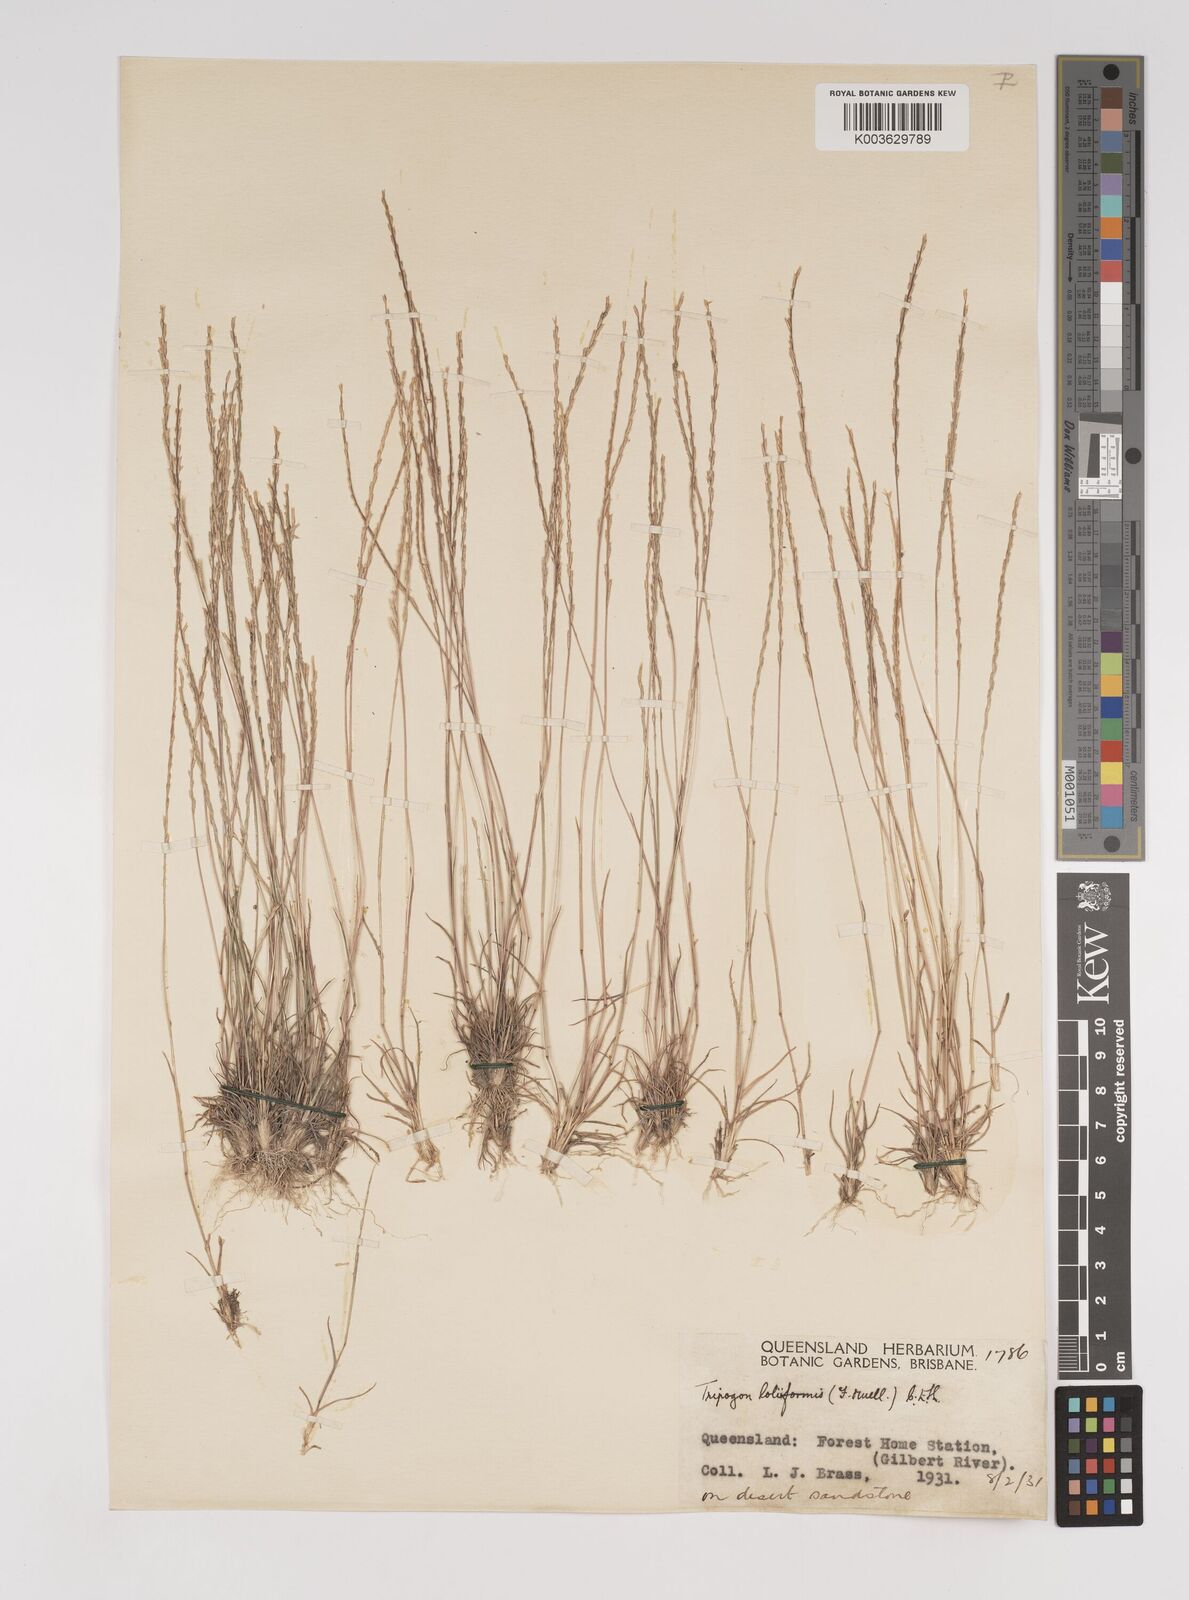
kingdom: Plantae
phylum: Tracheophyta
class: Liliopsida
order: Poales
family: Poaceae
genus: Tripogonella
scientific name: Tripogonella loliiformis
